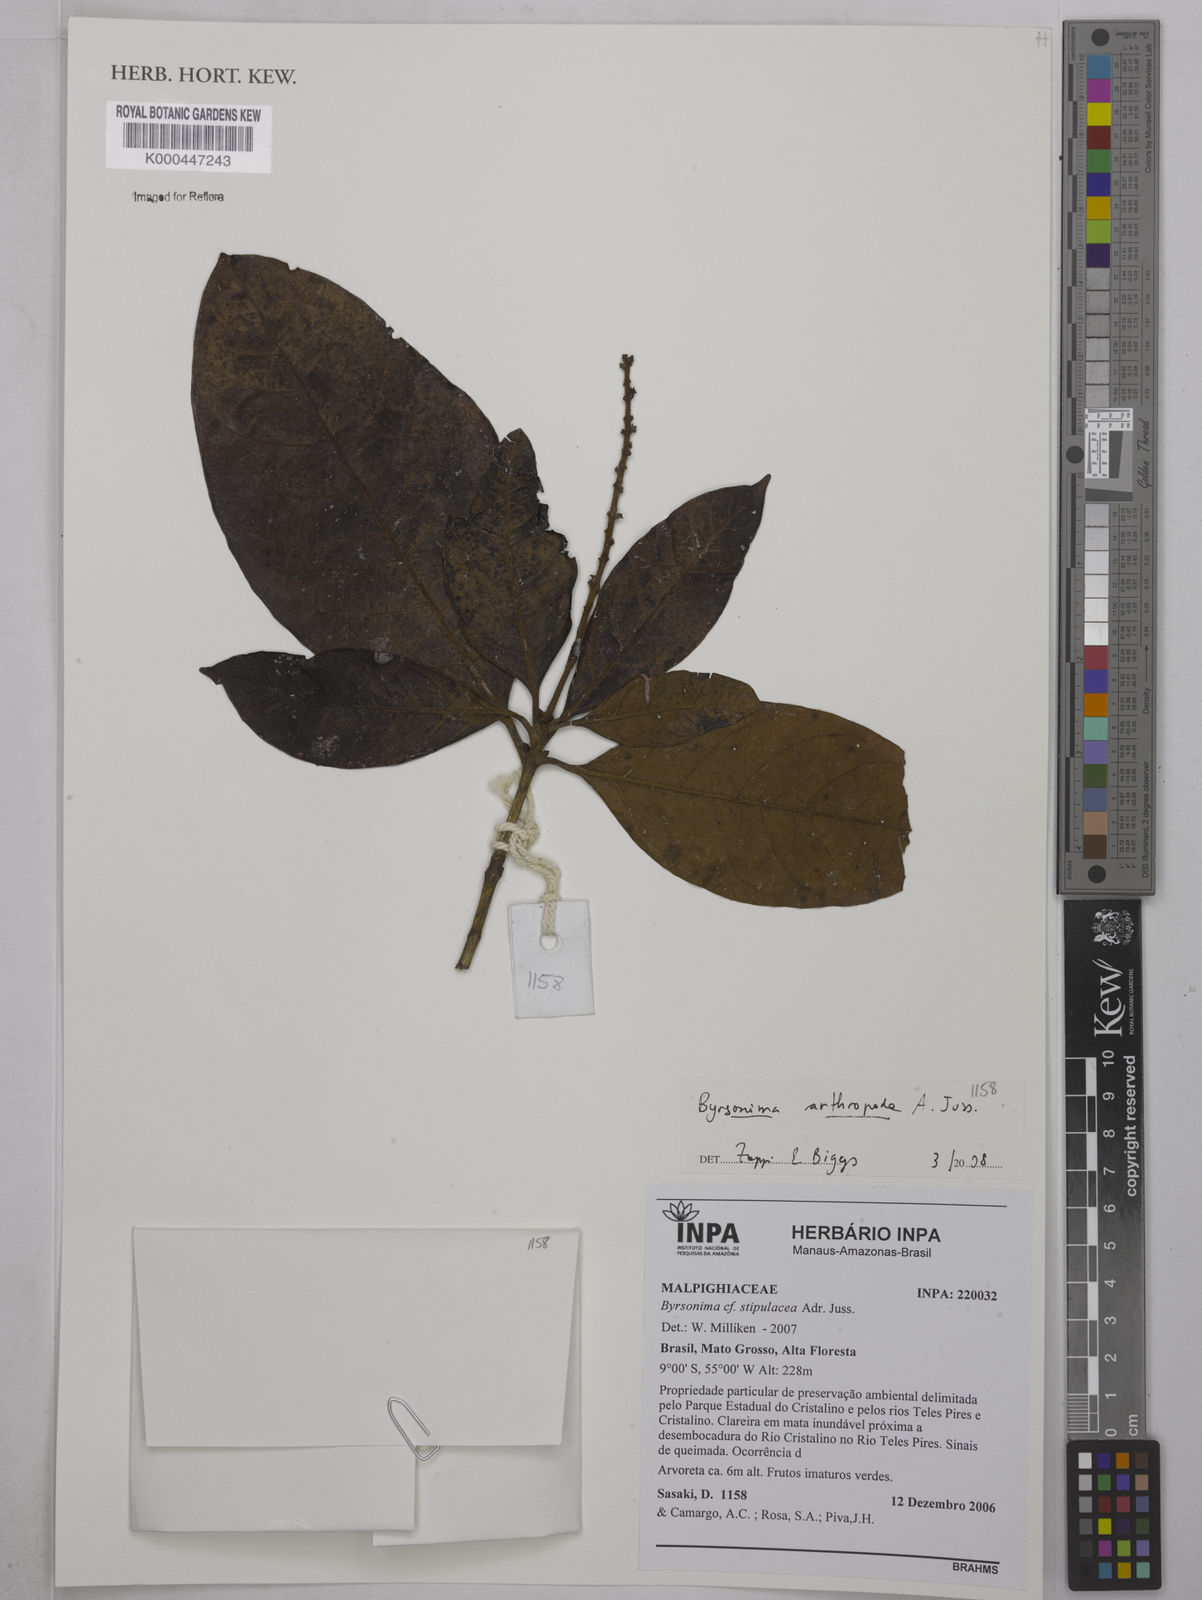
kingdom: Plantae
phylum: Tracheophyta
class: Magnoliopsida
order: Malpighiales
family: Malpighiaceae
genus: Byrsonima
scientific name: Byrsonima arthropoda
